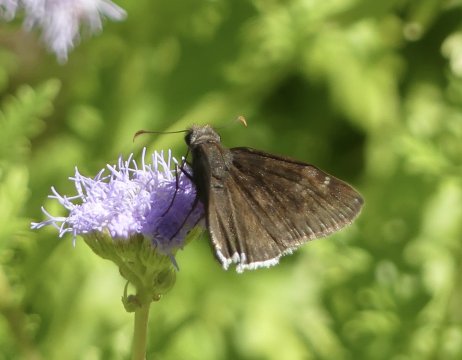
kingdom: Animalia
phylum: Arthropoda
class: Insecta
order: Lepidoptera
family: Hesperiidae
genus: Erynnis
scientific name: Erynnis funeralis
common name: Funereal Duskywing
